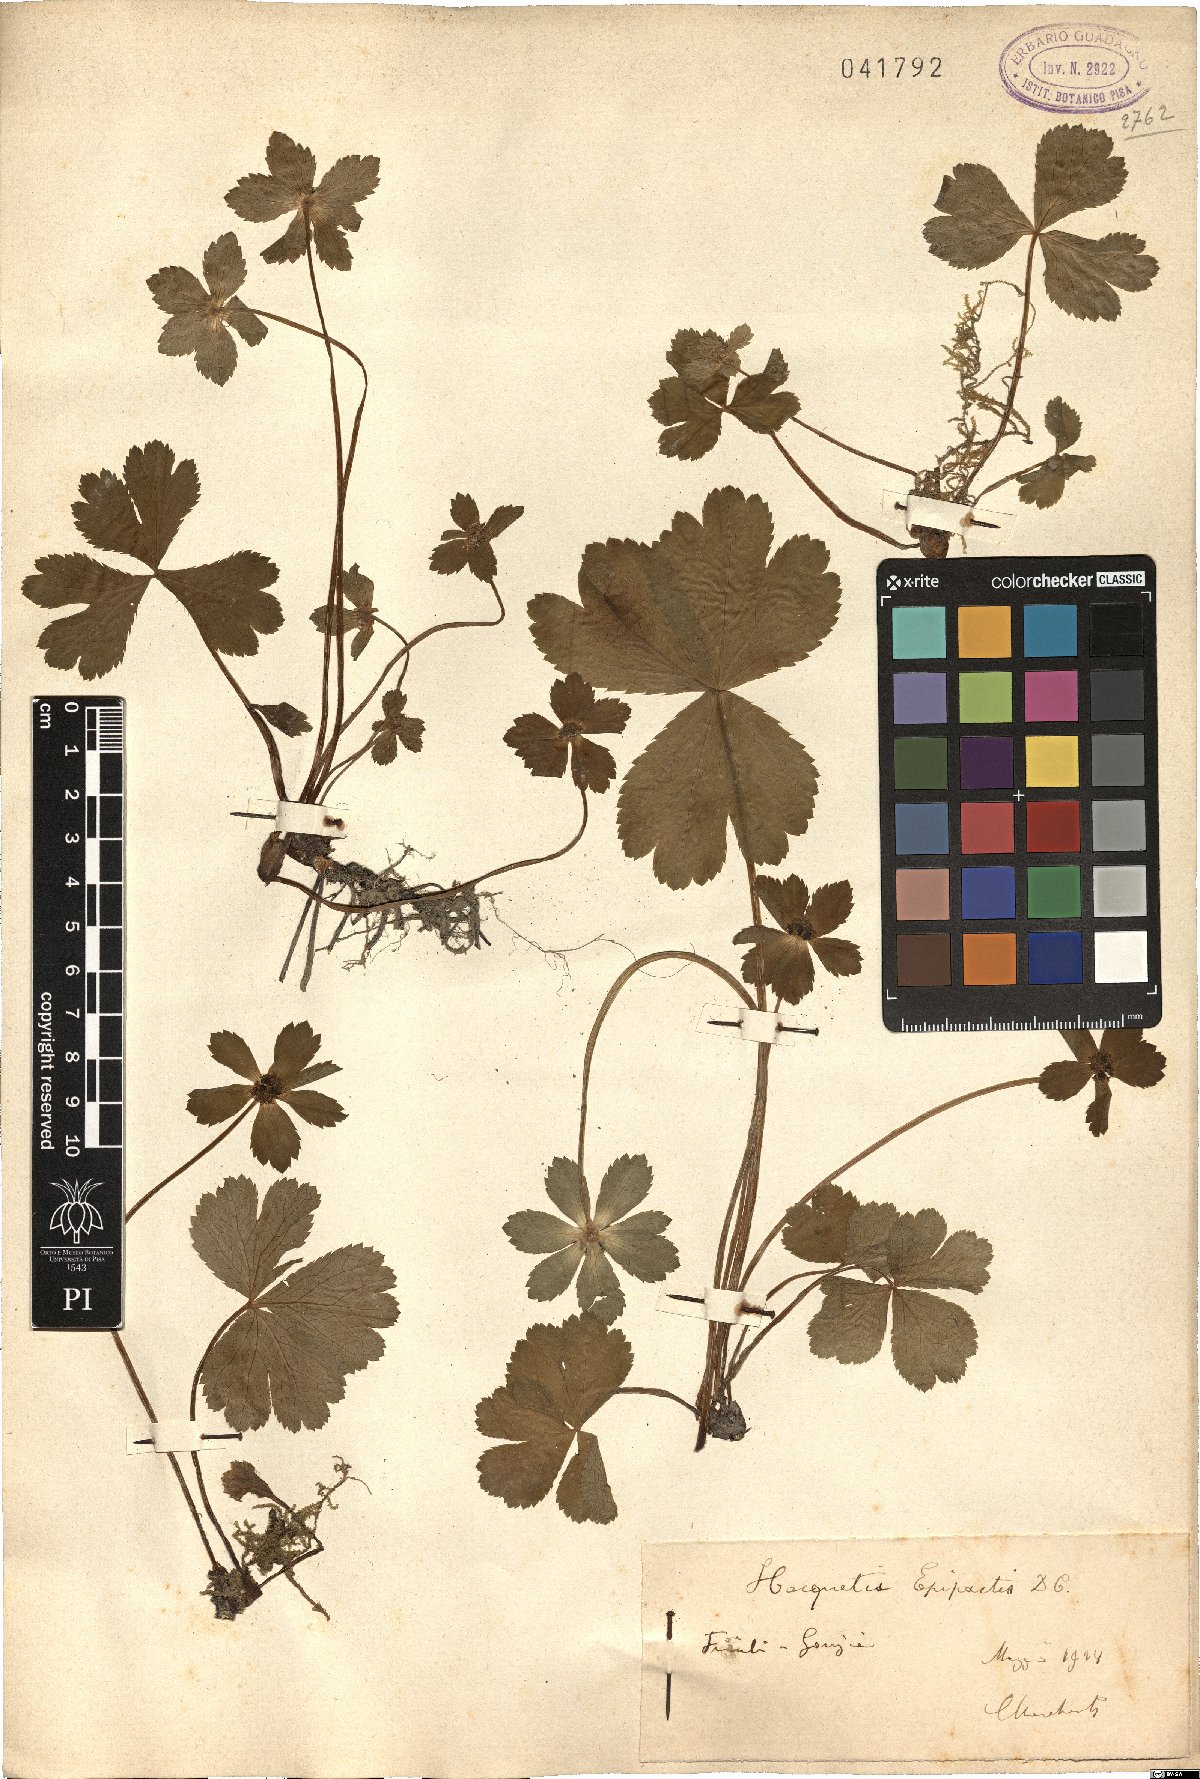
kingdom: Plantae
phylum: Tracheophyta
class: Magnoliopsida
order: Apiales
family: Apiaceae
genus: Sanicula
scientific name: Sanicula epipactis
